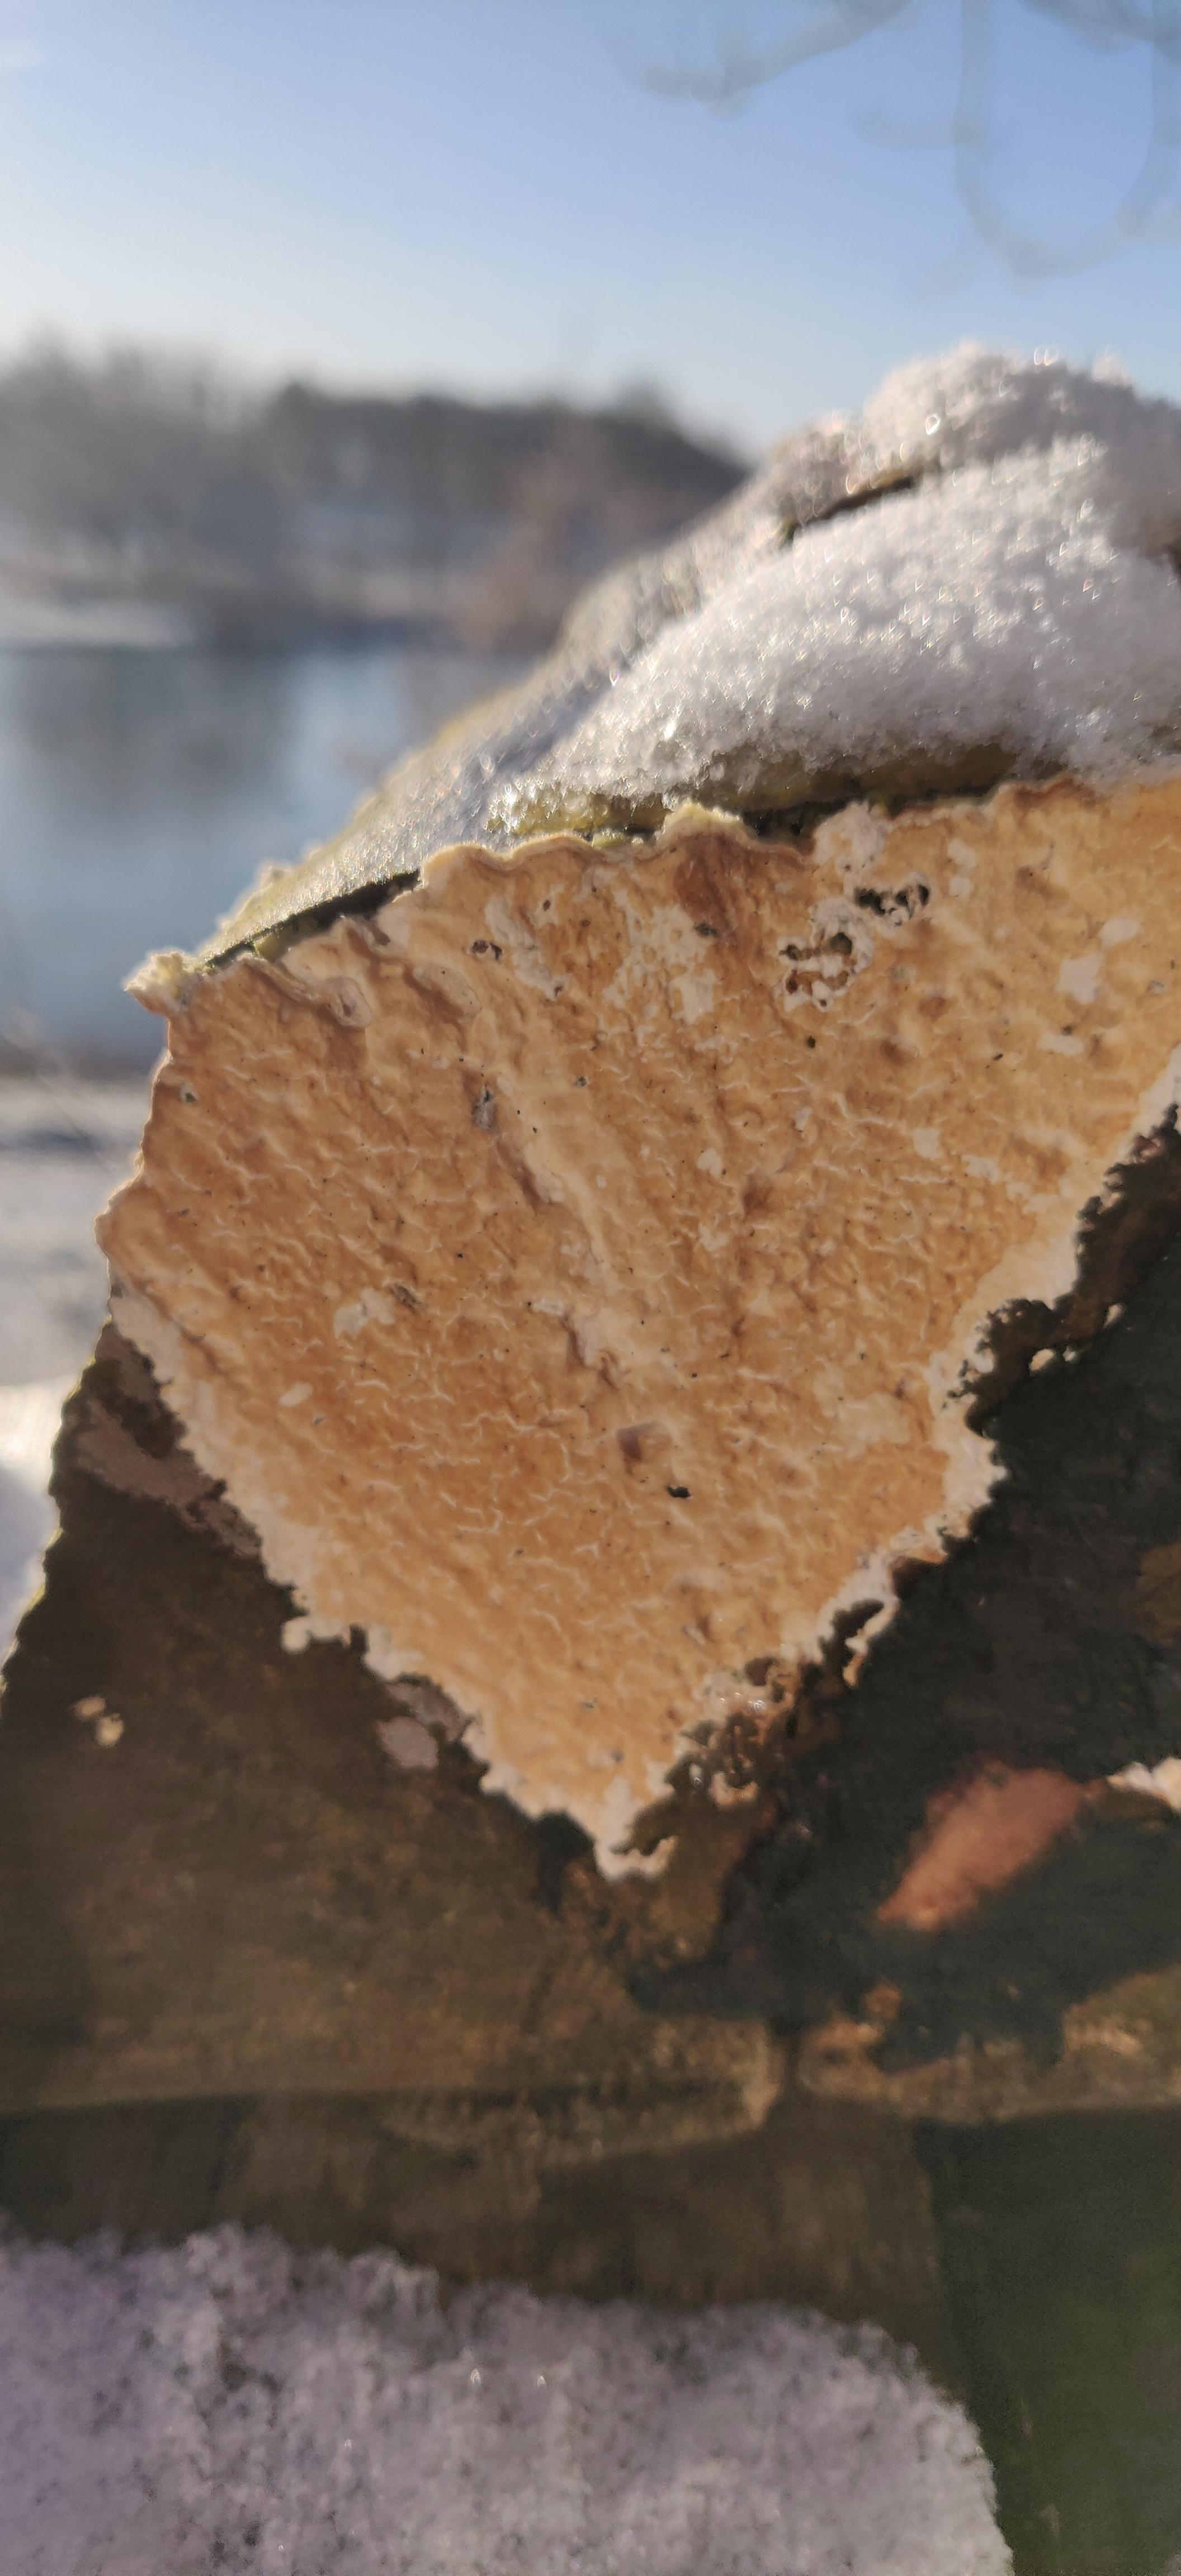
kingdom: Fungi
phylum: Basidiomycota
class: Agaricomycetes
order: Agaricales
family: Physalacriaceae
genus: Cylindrobasidium
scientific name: Cylindrobasidium evolvens
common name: sprækkehinde
